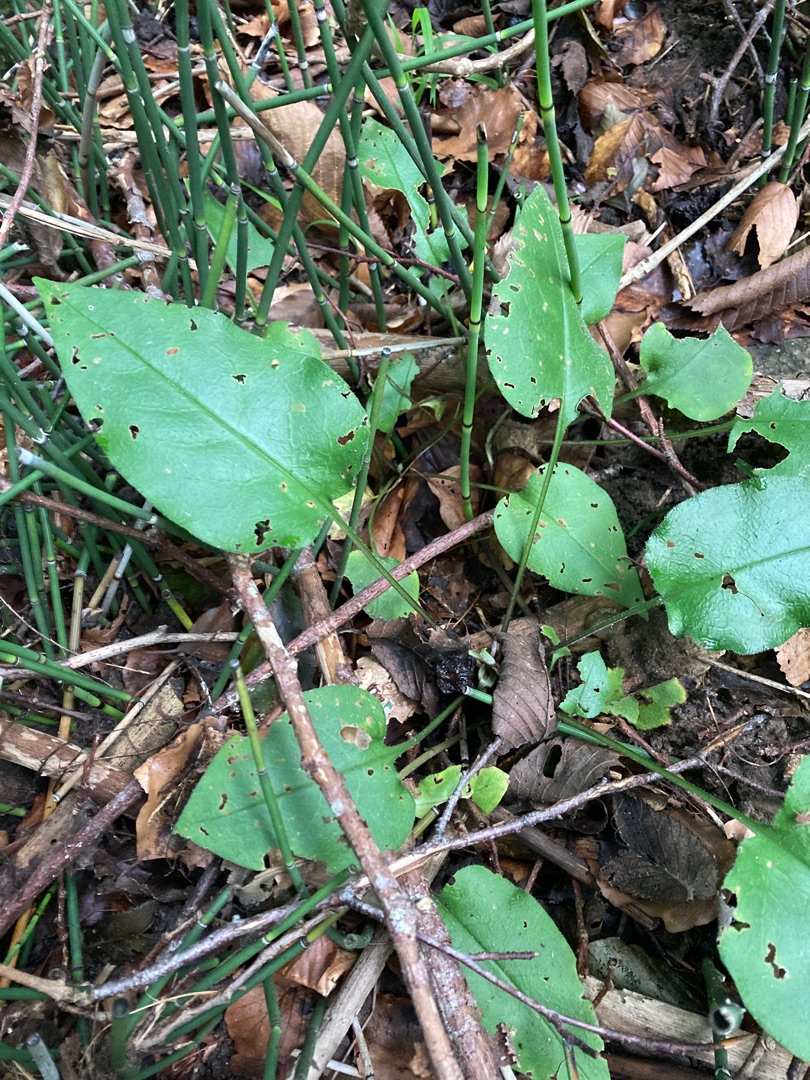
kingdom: Plantae
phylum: Tracheophyta
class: Magnoliopsida
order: Boraginales
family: Boraginaceae
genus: Pulmonaria
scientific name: Pulmonaria obscura
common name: Almindelig lungeurt
